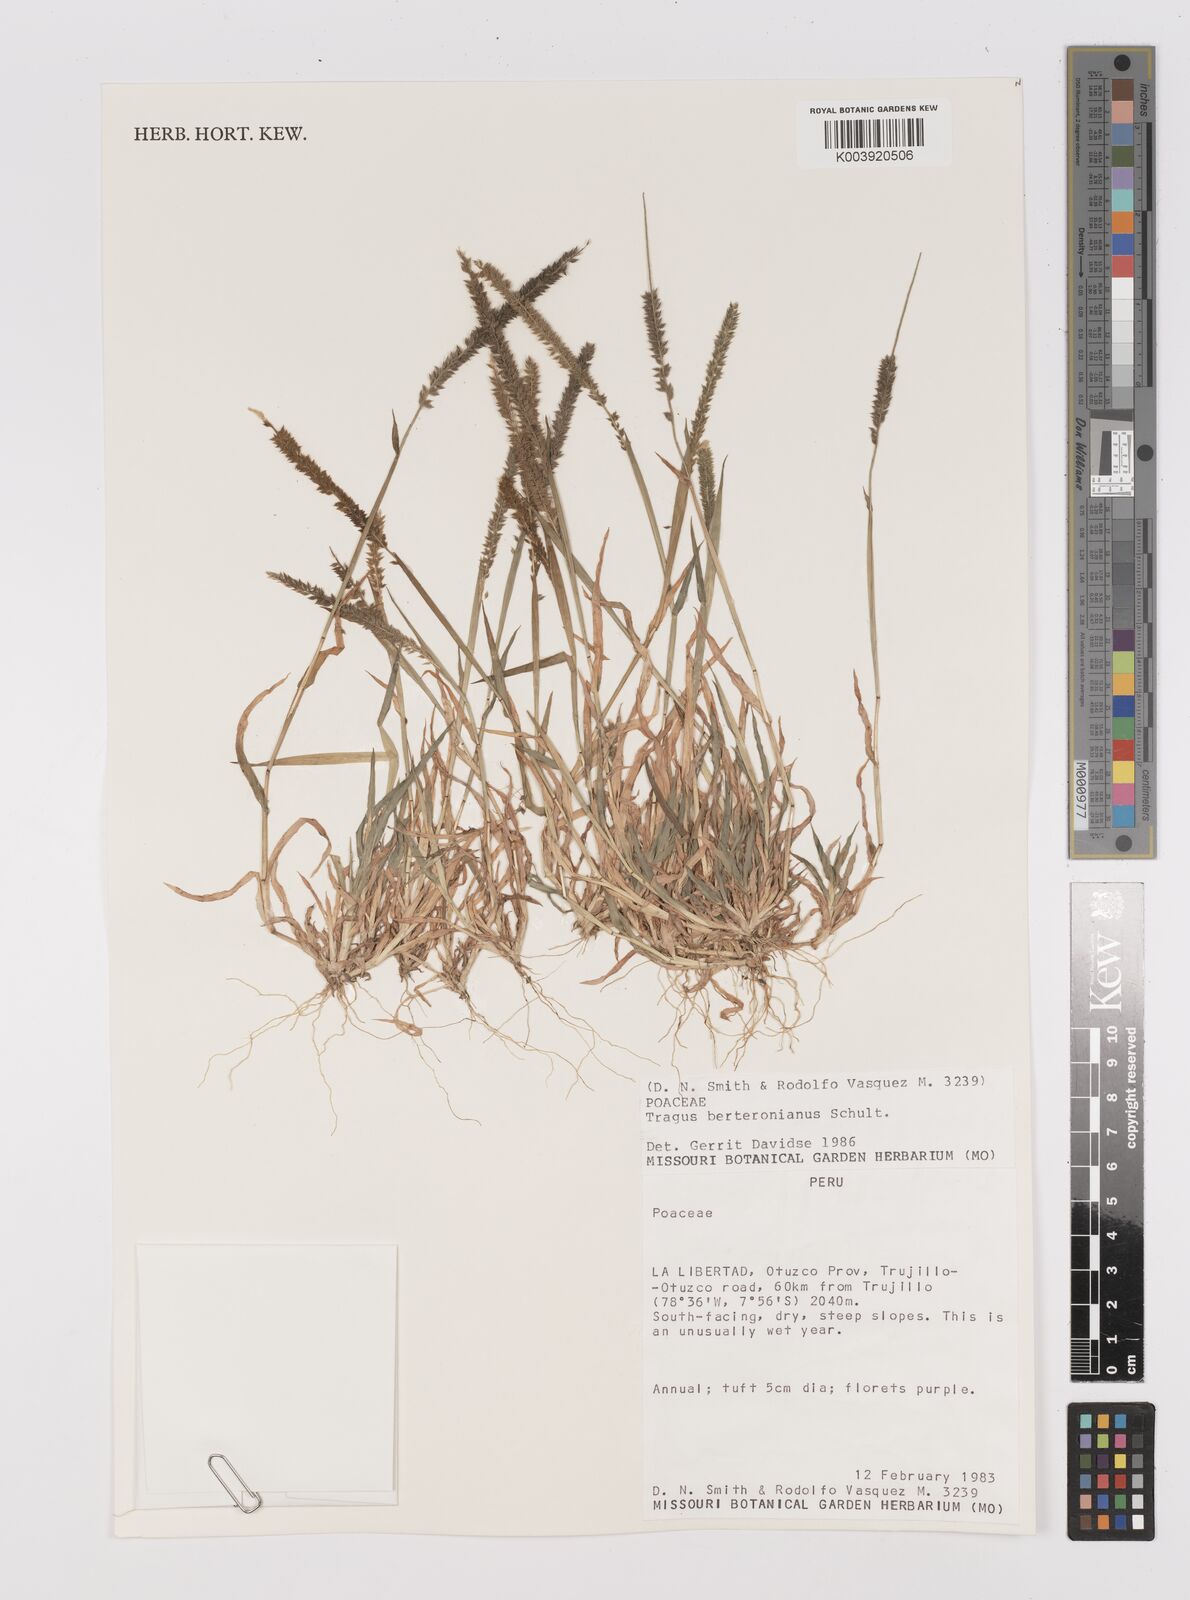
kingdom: Plantae
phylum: Tracheophyta
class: Liliopsida
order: Poales
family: Poaceae
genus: Tragus
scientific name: Tragus berteronianus
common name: African bur-grass
